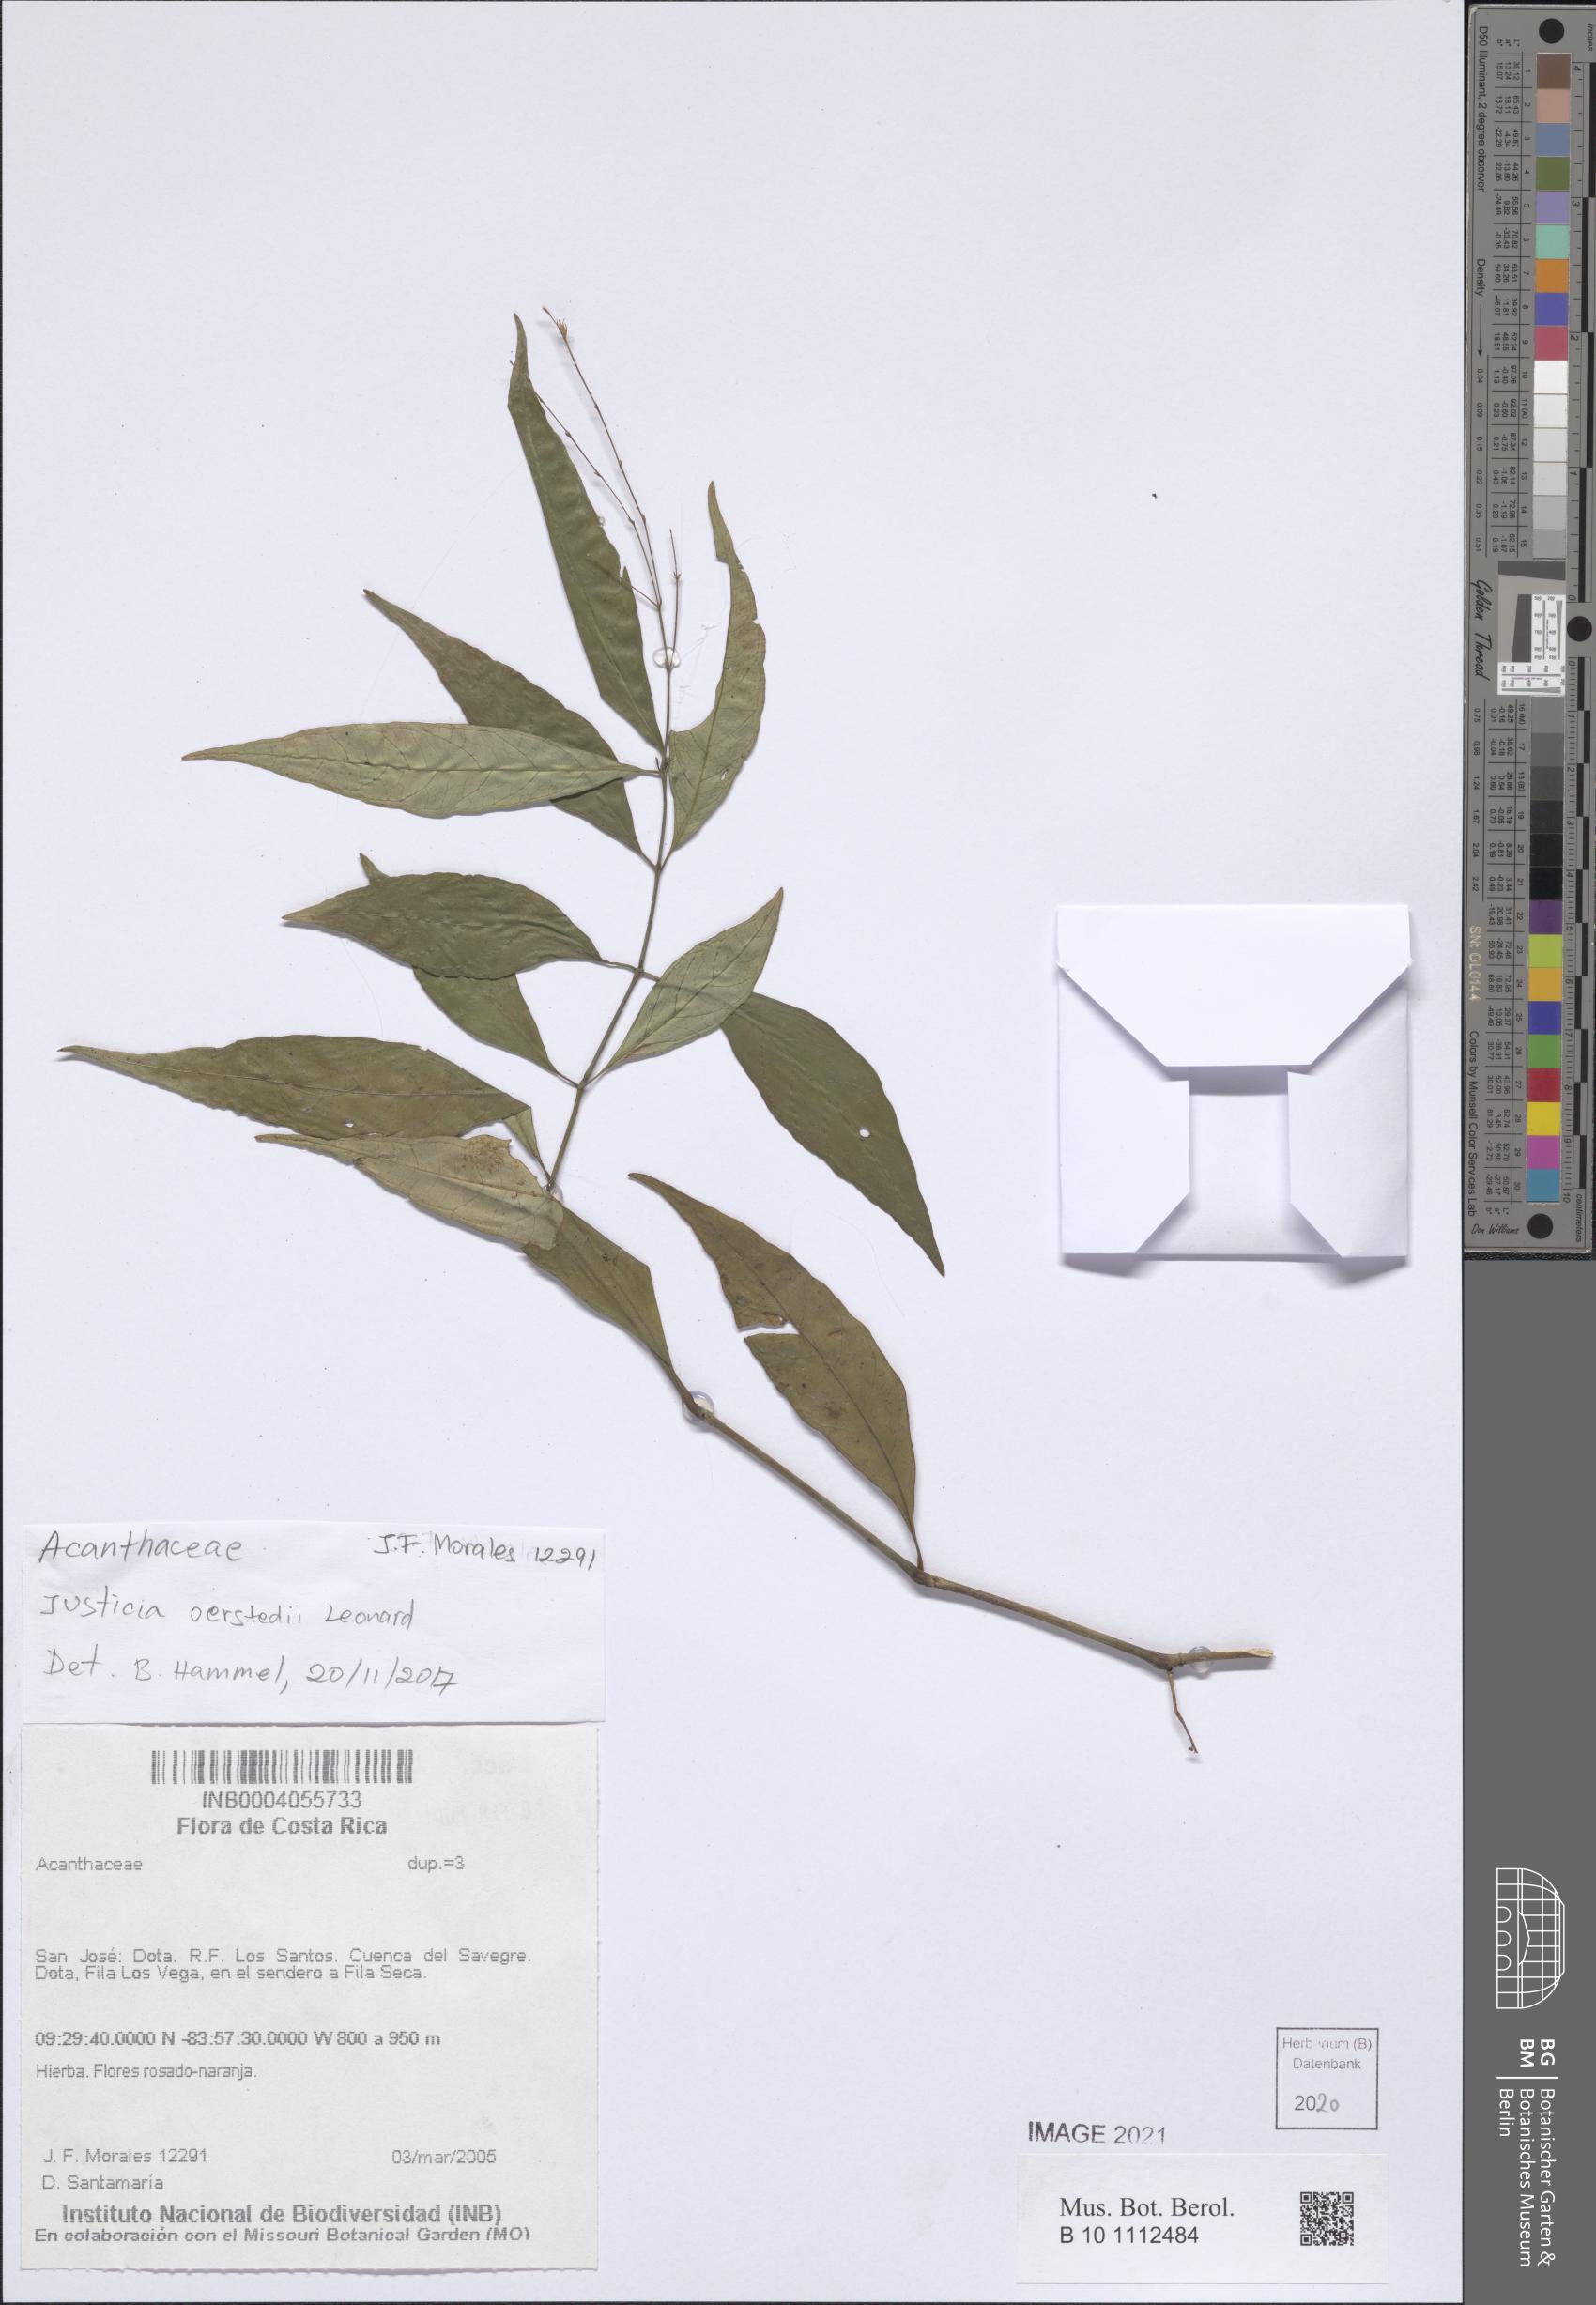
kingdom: Plantae
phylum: Tracheophyta
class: Magnoliopsida
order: Lamiales
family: Acanthaceae
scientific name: Acanthaceae
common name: Acanthaceae
